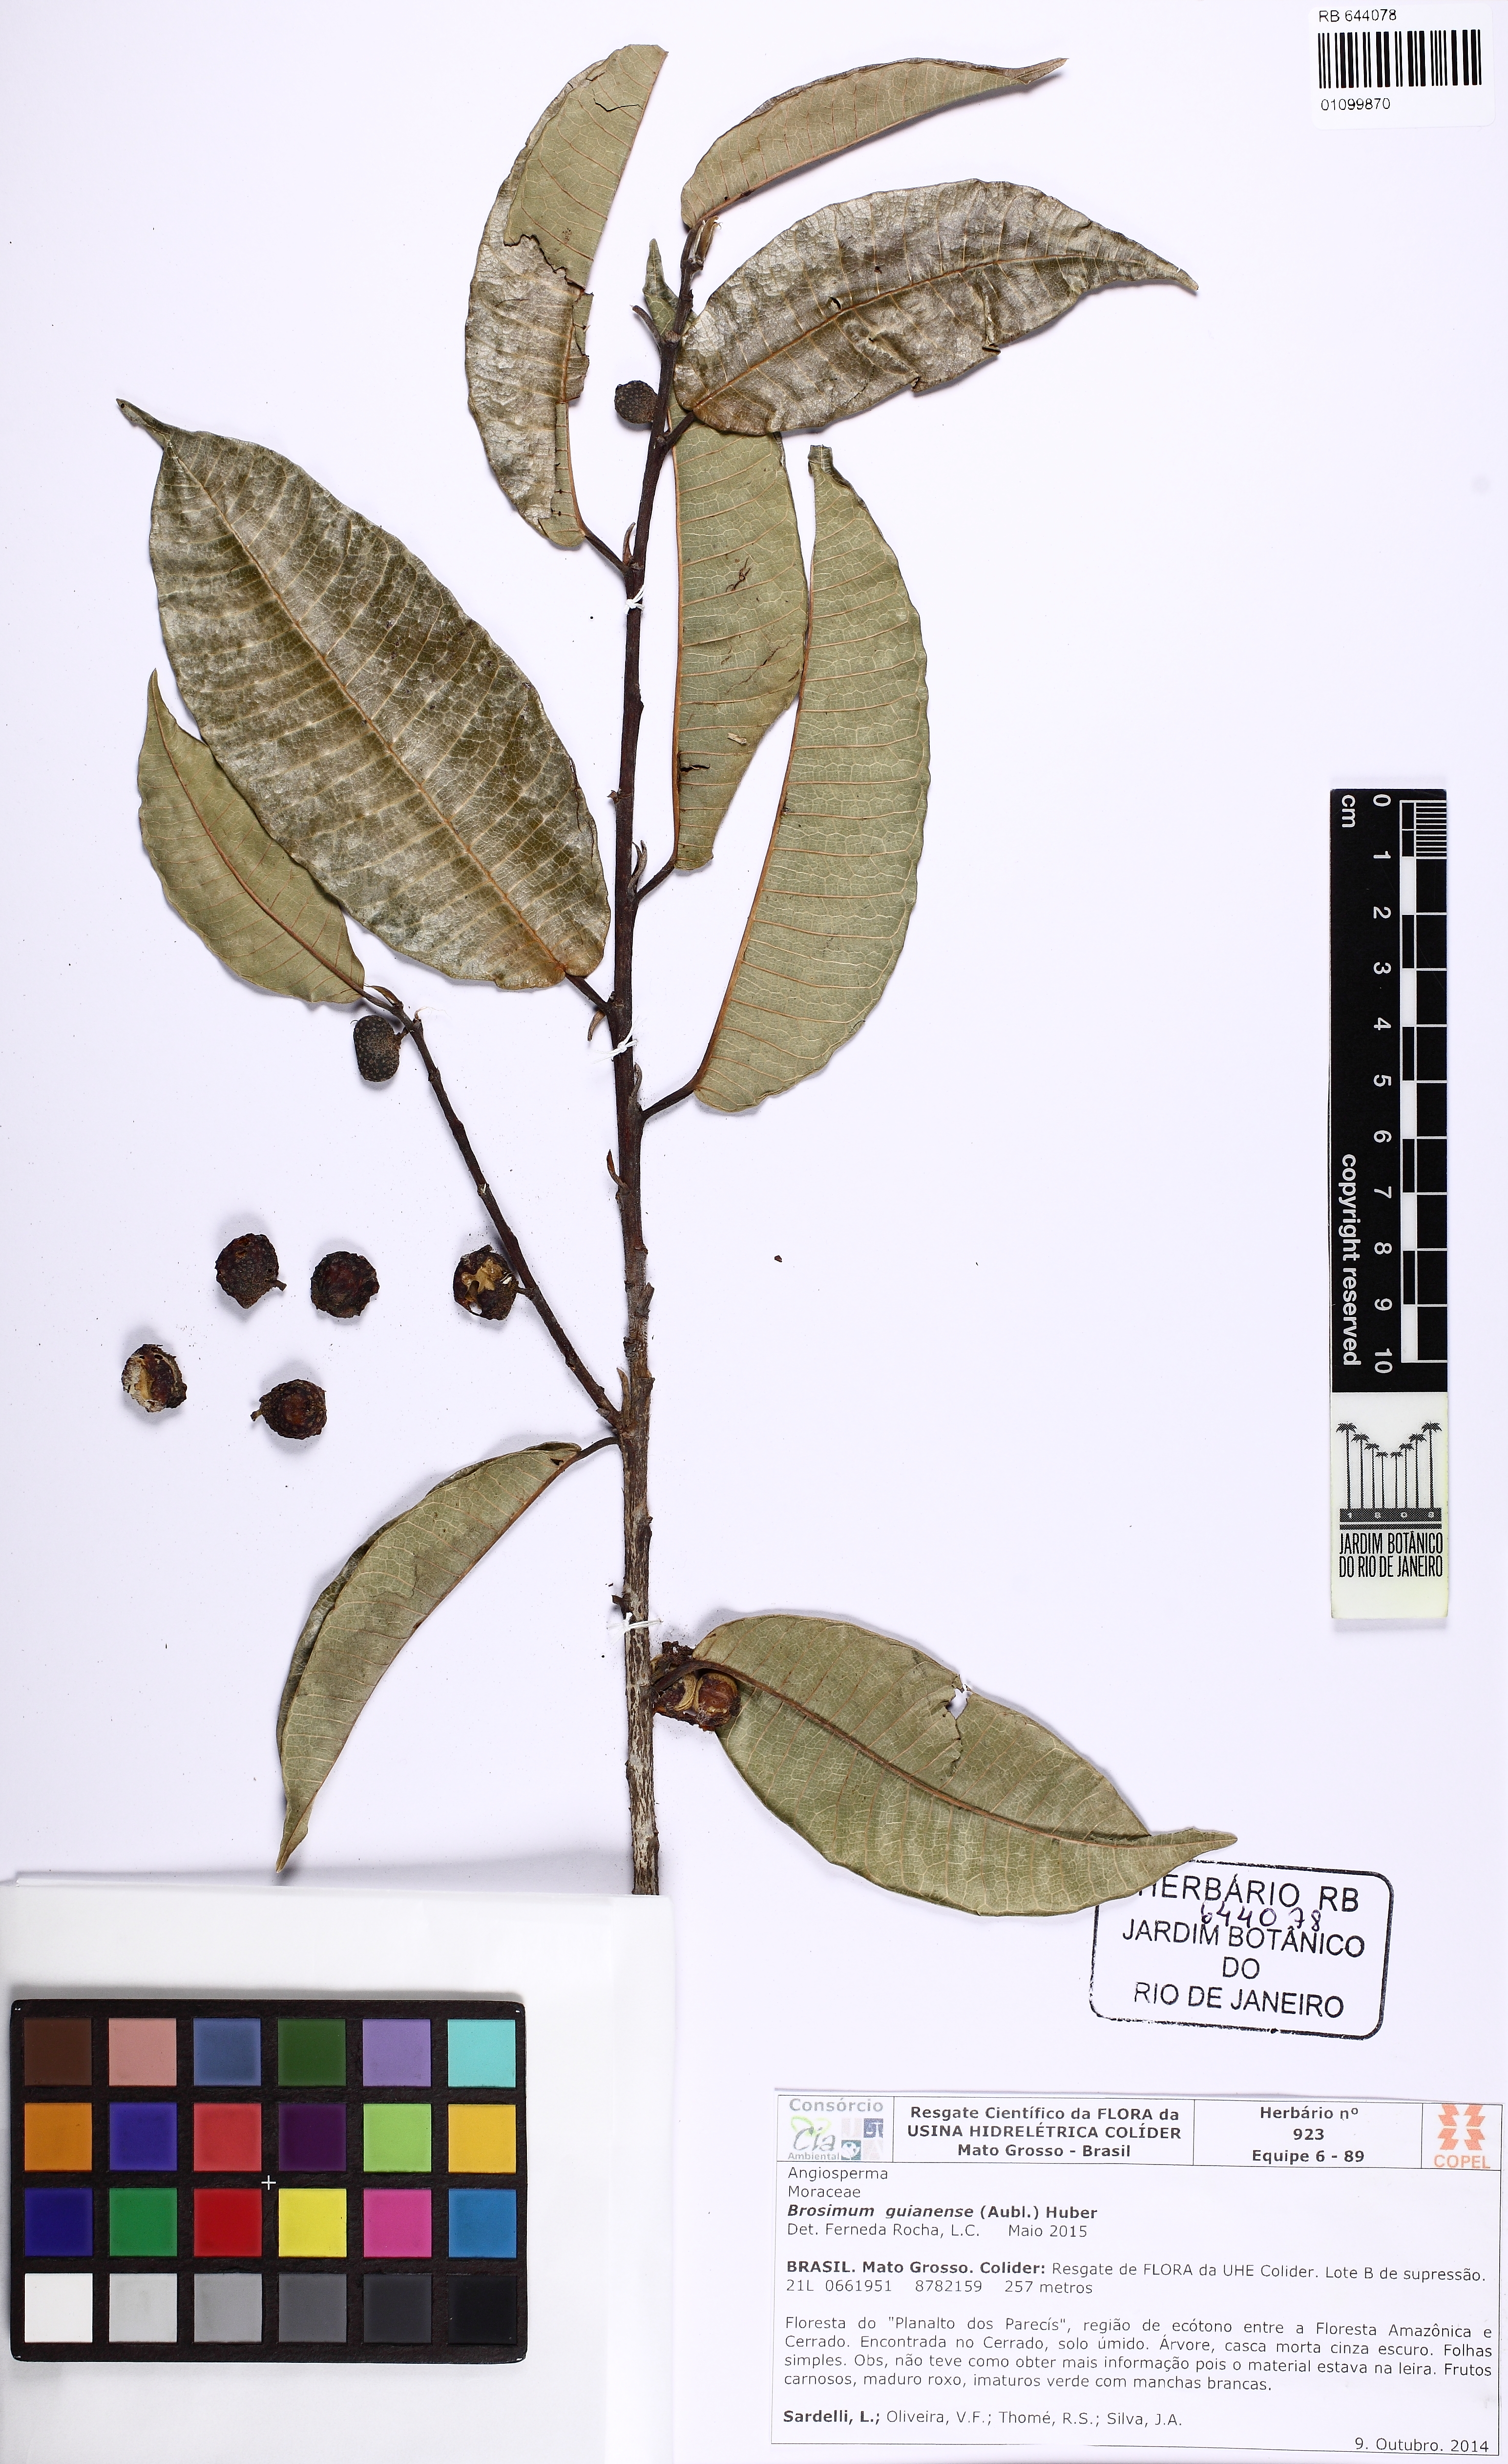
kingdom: Plantae
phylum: Tracheophyta
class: Magnoliopsida
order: Rosales
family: Moraceae
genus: Brosimum
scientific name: Brosimum guianense
